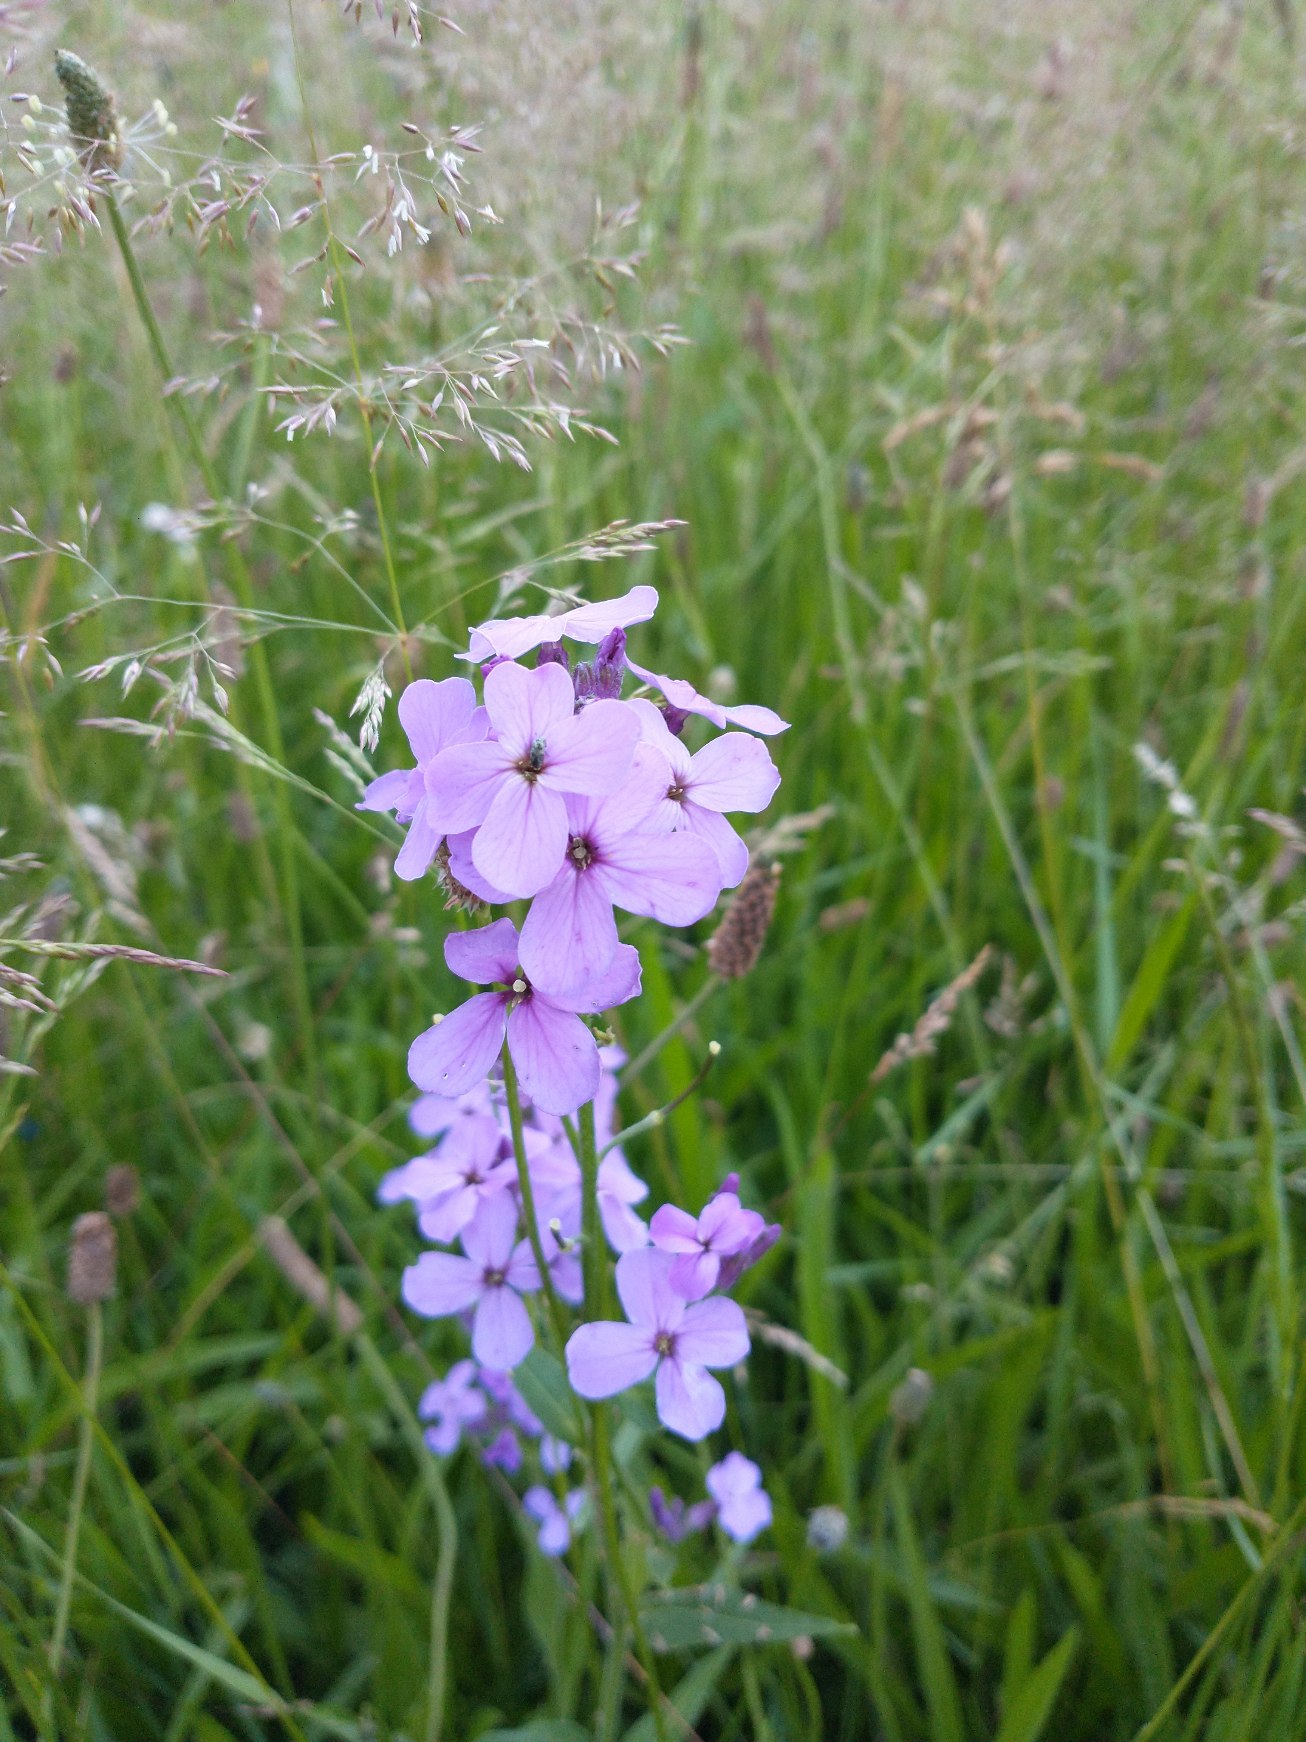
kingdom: Plantae
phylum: Tracheophyta
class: Magnoliopsida
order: Brassicales
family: Brassicaceae
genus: Hesperis
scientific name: Hesperis matronalis
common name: Aftenstjerne
